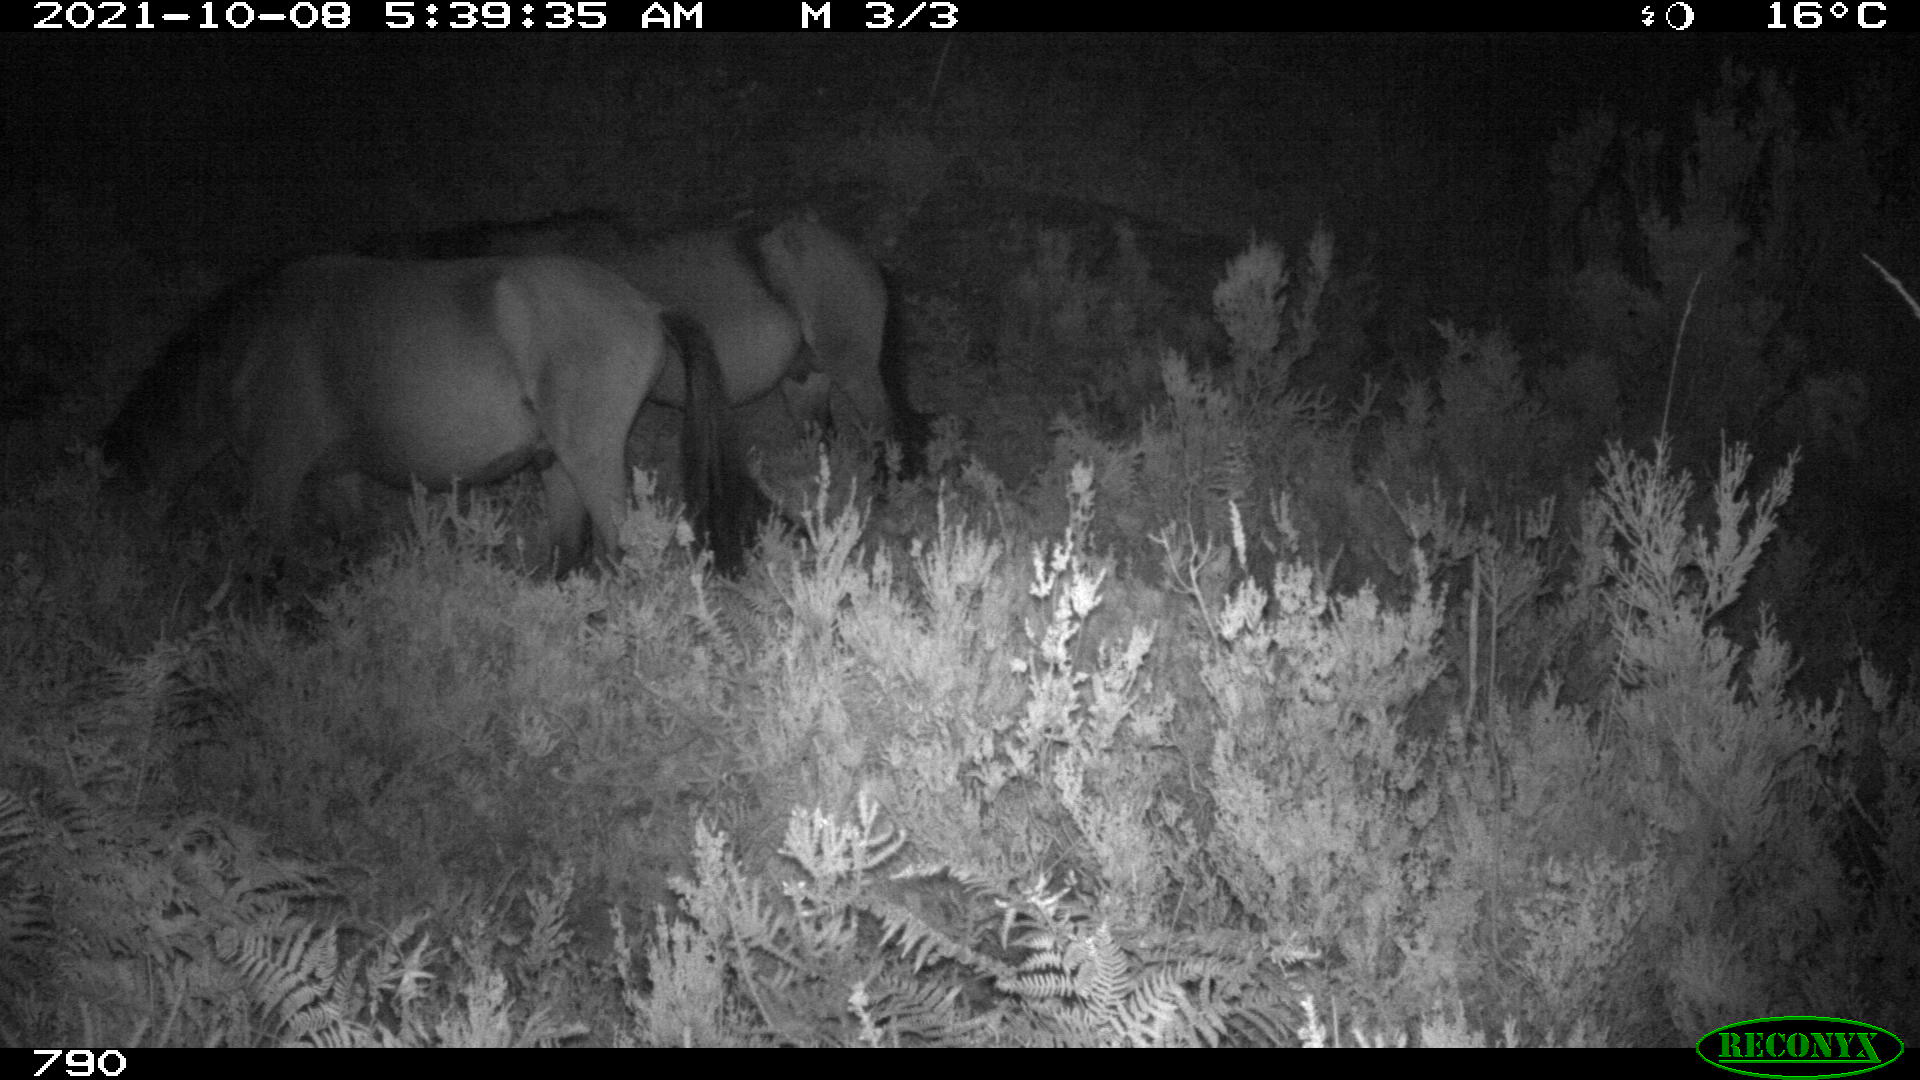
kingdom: Animalia
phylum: Chordata
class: Mammalia
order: Perissodactyla
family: Equidae
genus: Equus
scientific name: Equus caballus
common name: Horse
